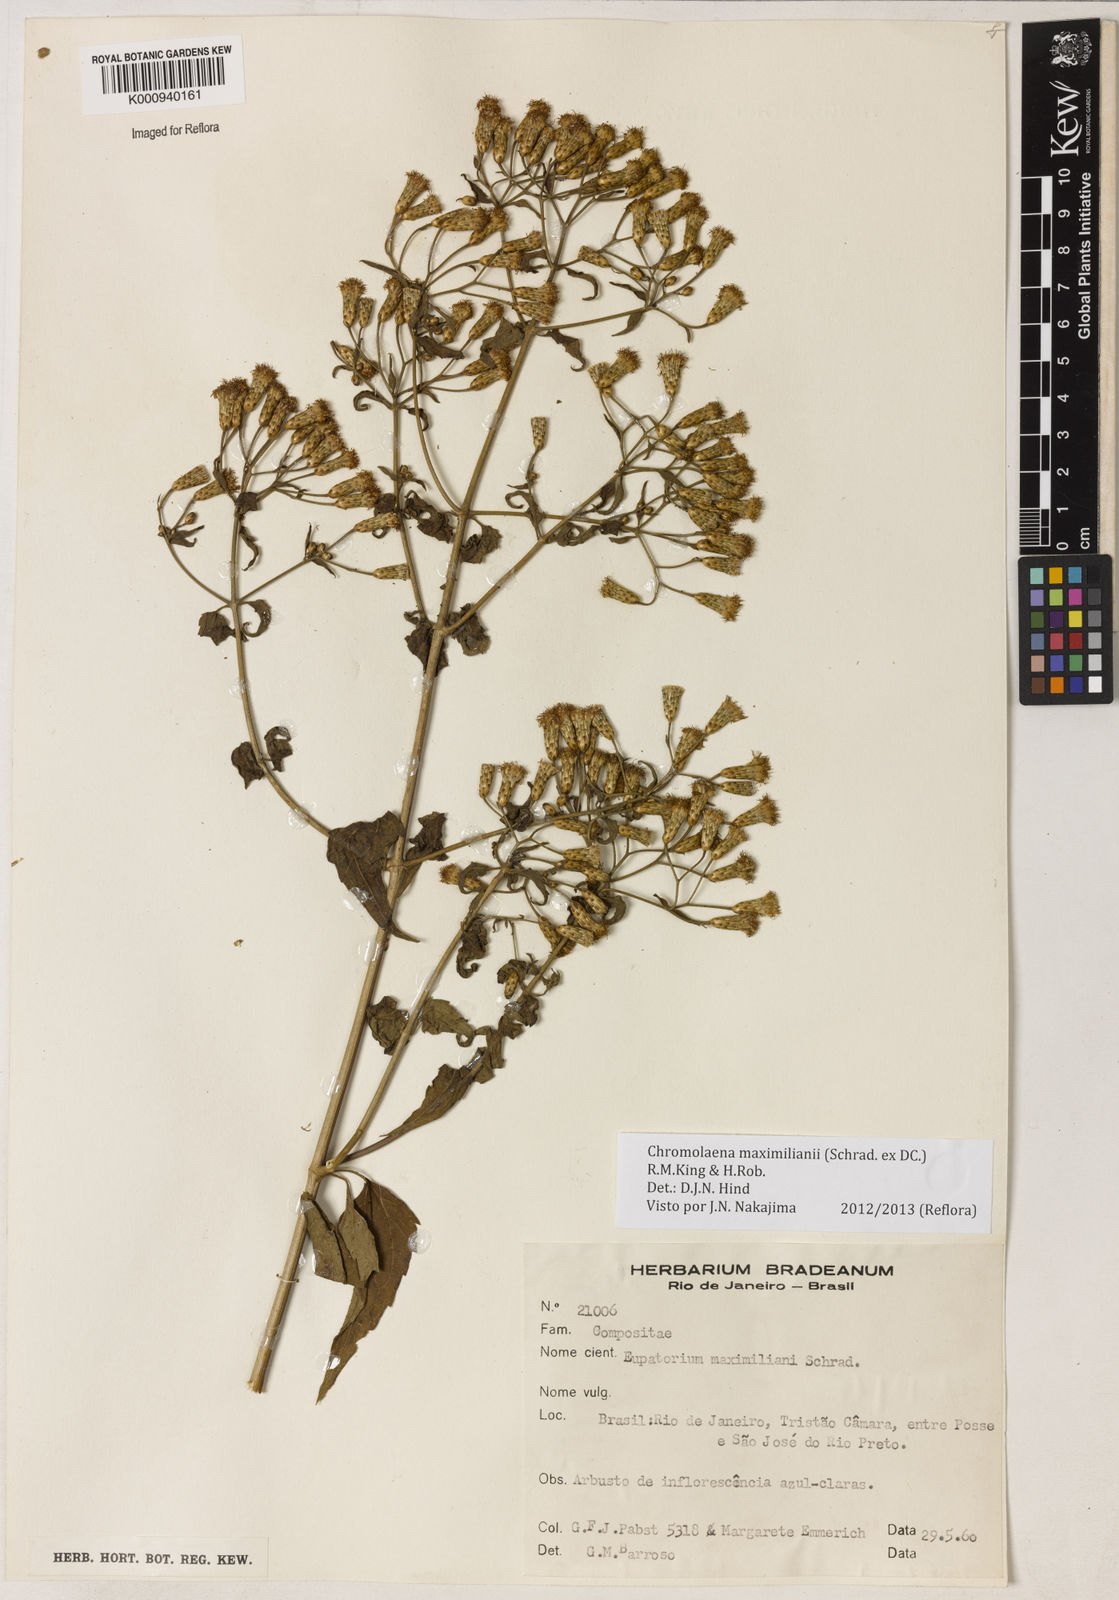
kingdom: Plantae
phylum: Tracheophyta
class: Magnoliopsida
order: Asterales
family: Asteraceae
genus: Chromolaena
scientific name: Chromolaena maximiliani
